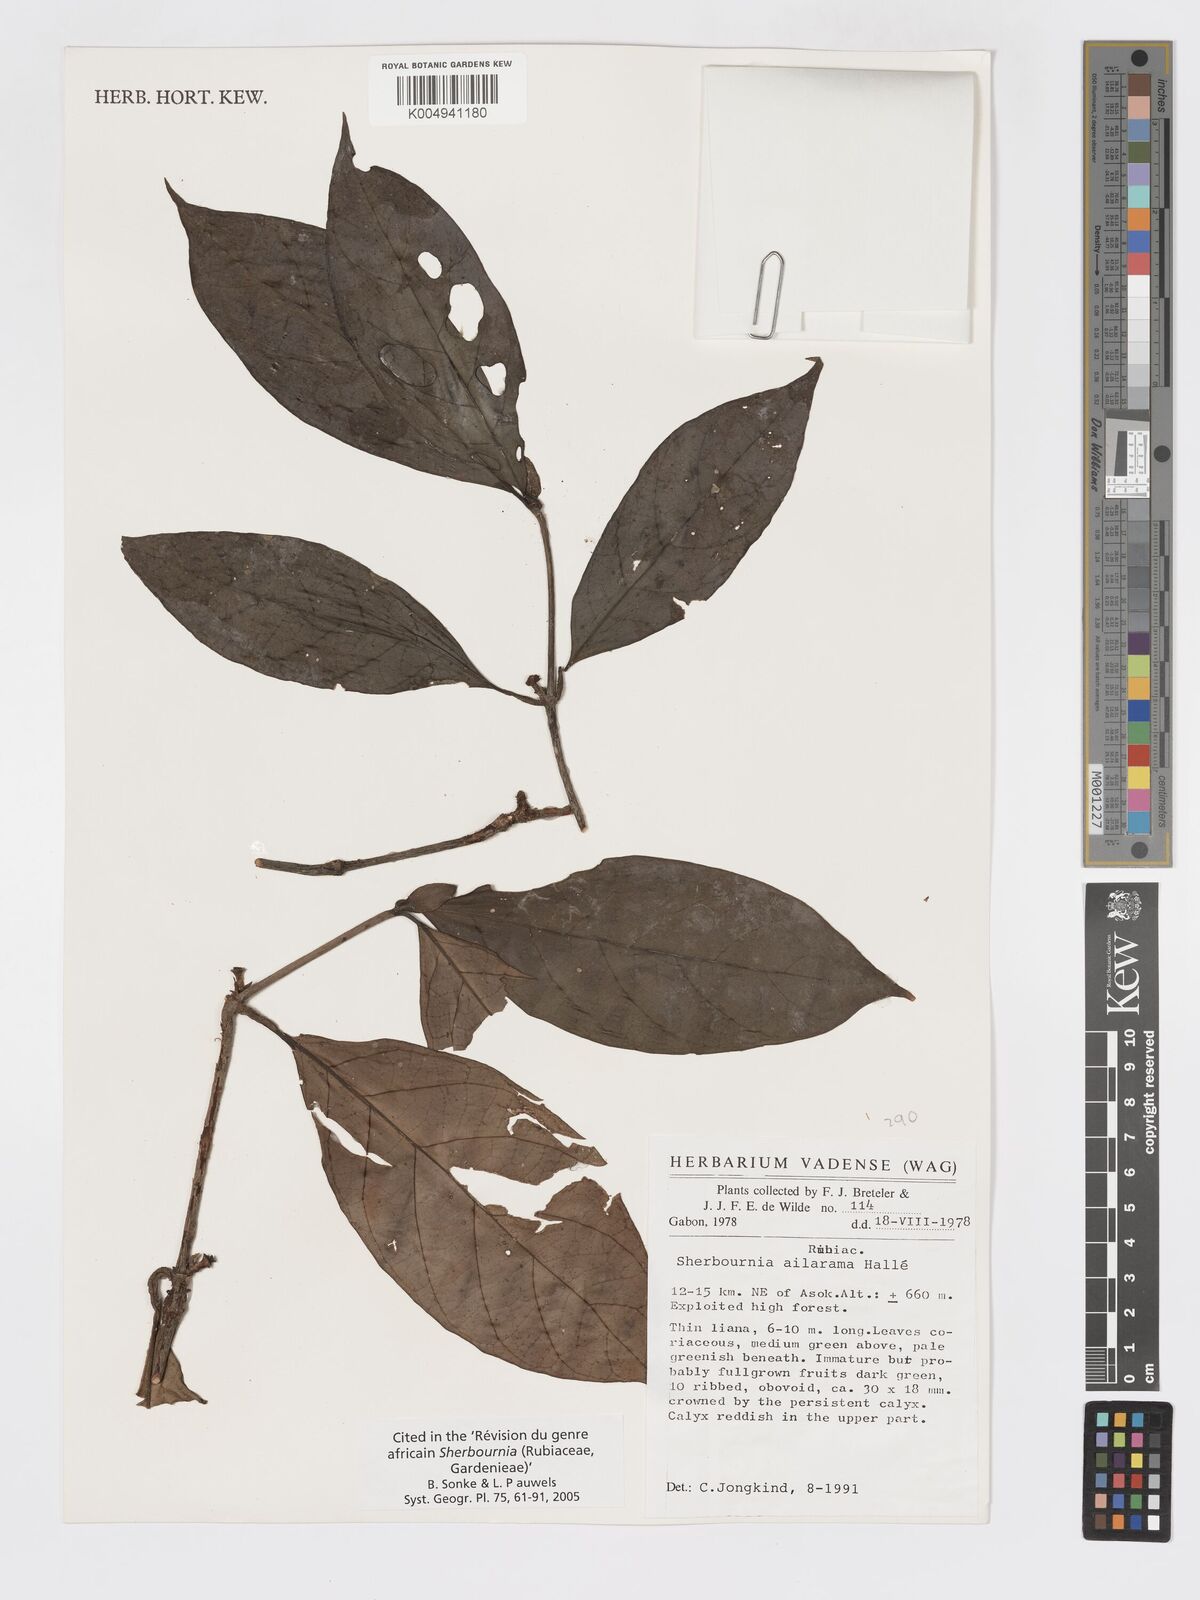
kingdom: Plantae
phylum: Tracheophyta
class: Magnoliopsida
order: Gentianales
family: Rubiaceae
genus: Sherbournia
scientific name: Sherbournia ailarama
